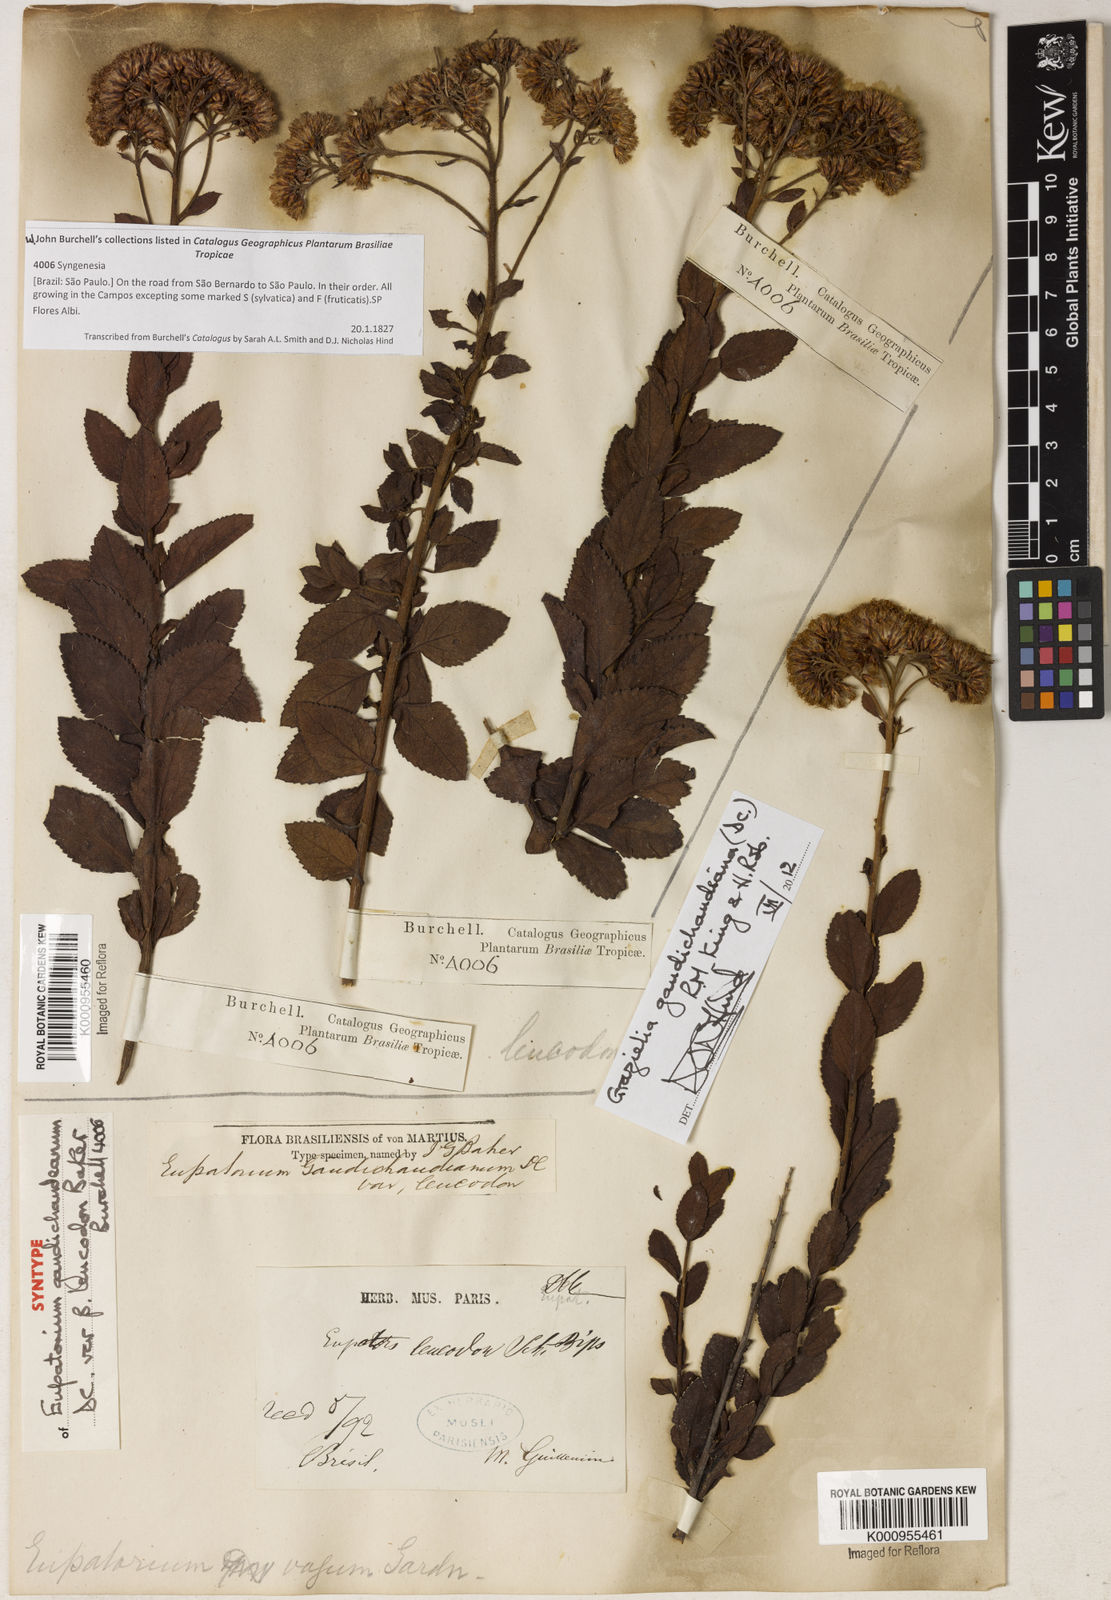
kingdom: Plantae
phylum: Tracheophyta
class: Magnoliopsida
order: Asterales
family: Asteraceae
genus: Grazielia
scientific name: Grazielia gaudichaudeana
